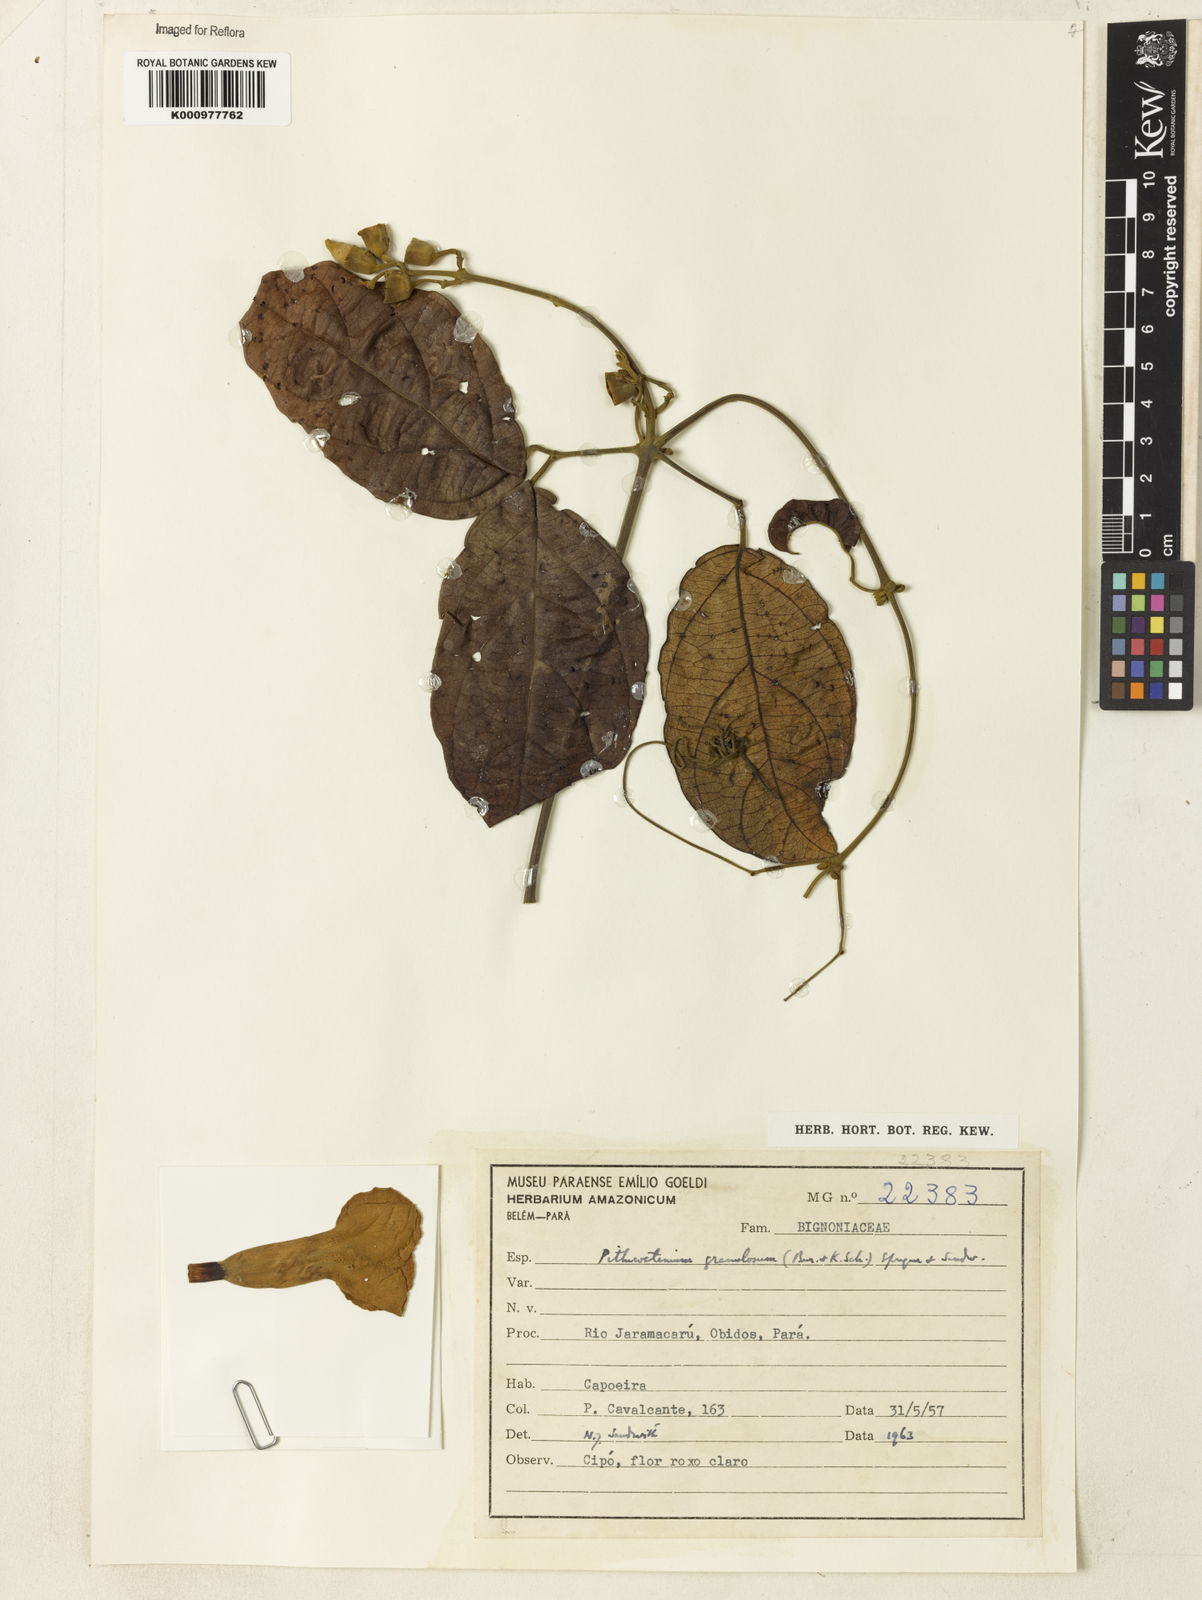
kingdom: Plantae
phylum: Tracheophyta
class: Magnoliopsida
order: Lamiales
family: Bignoniaceae
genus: Amphilophium
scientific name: Amphilophium granulosum
